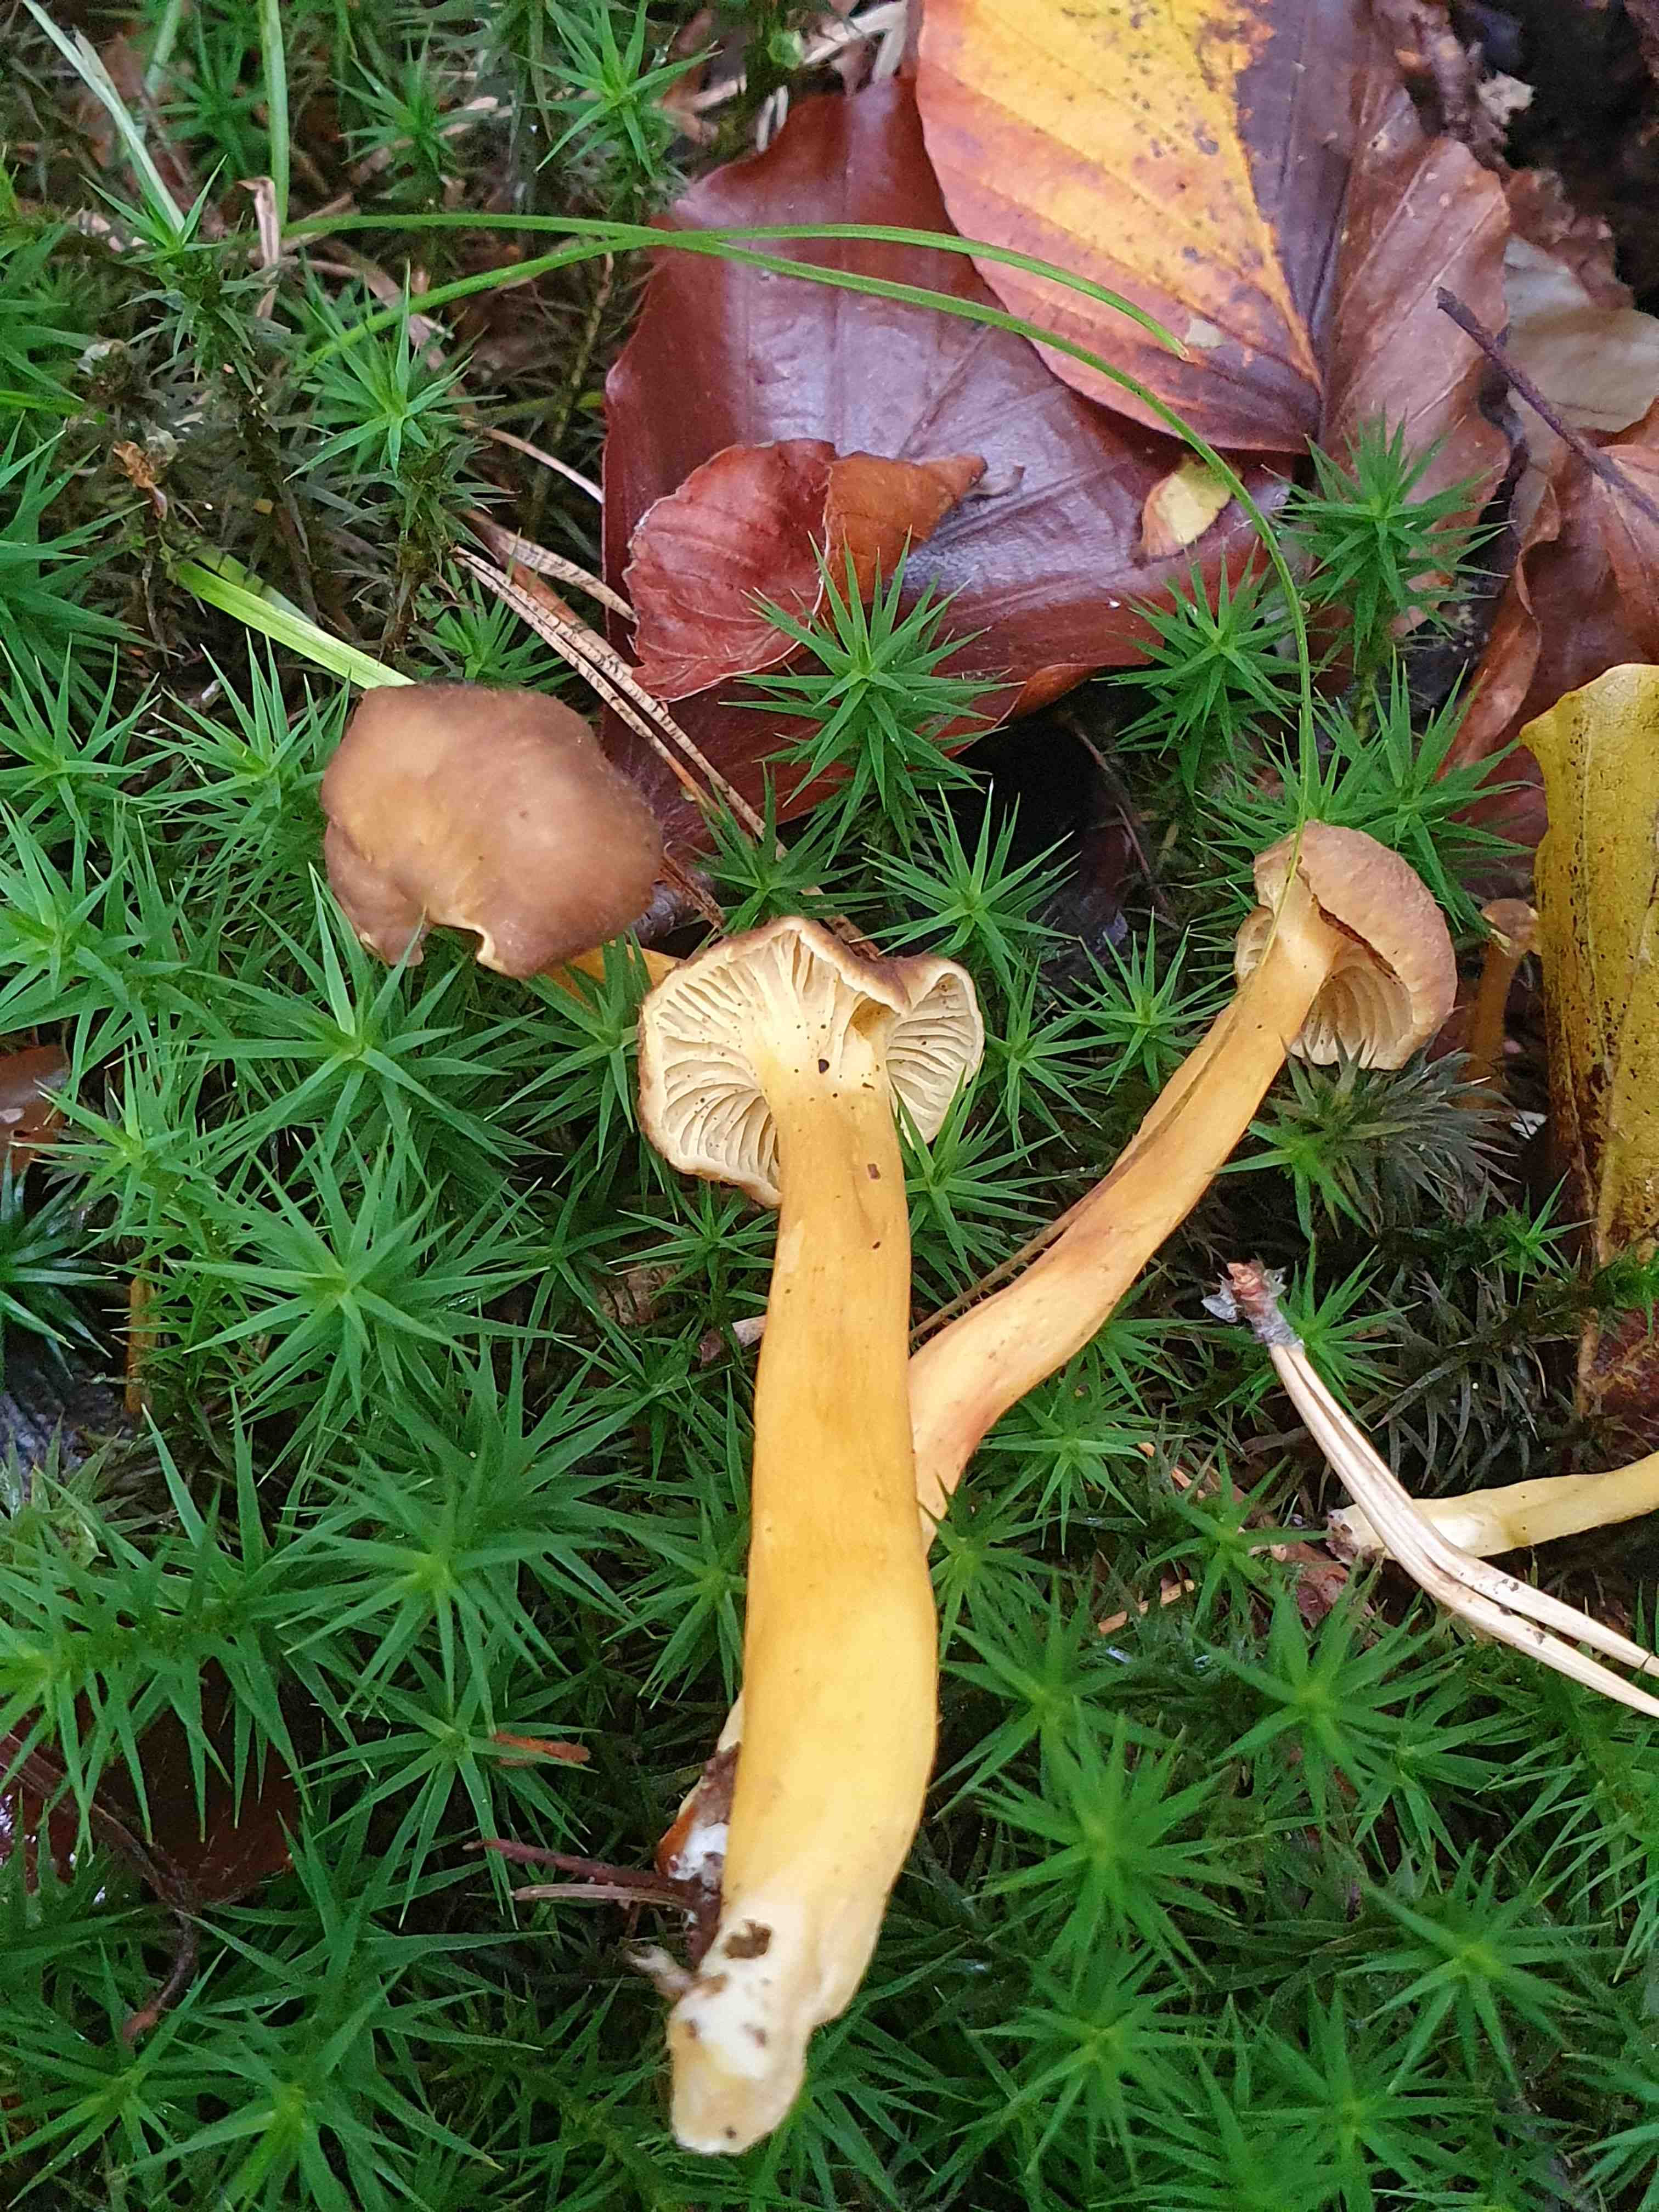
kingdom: Fungi
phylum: Basidiomycota
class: Agaricomycetes
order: Cantharellales
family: Hydnaceae
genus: Craterellus
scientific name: Craterellus tubaeformis
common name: tragt-kantarel
